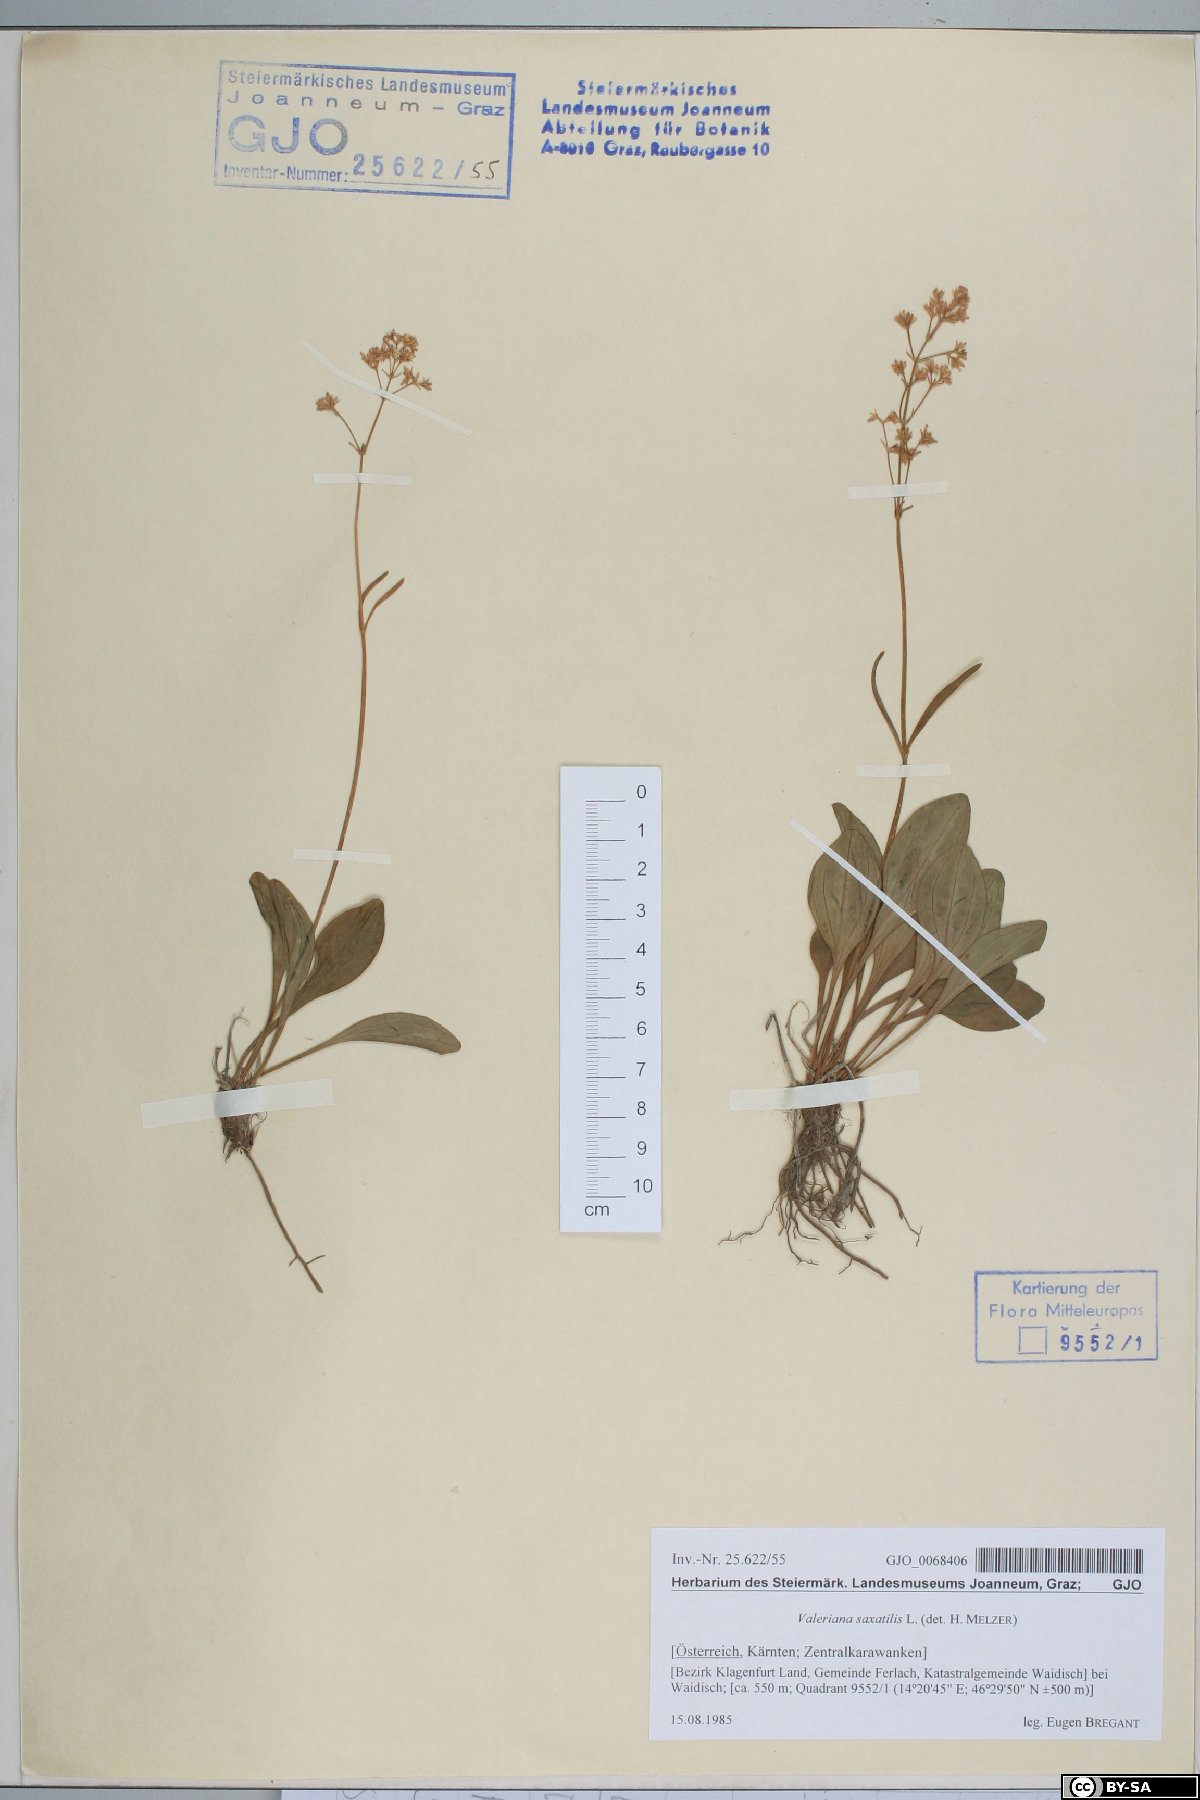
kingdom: Plantae
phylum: Tracheophyta
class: Magnoliopsida
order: Dipsacales
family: Caprifoliaceae
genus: Valeriana
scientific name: Valeriana saxatilis
